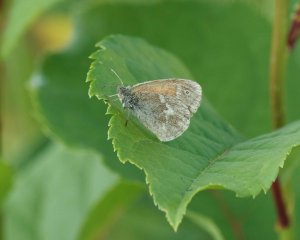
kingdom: Animalia
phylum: Arthropoda
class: Insecta
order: Lepidoptera
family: Nymphalidae
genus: Coenonympha
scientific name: Coenonympha tullia
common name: Large Heath
